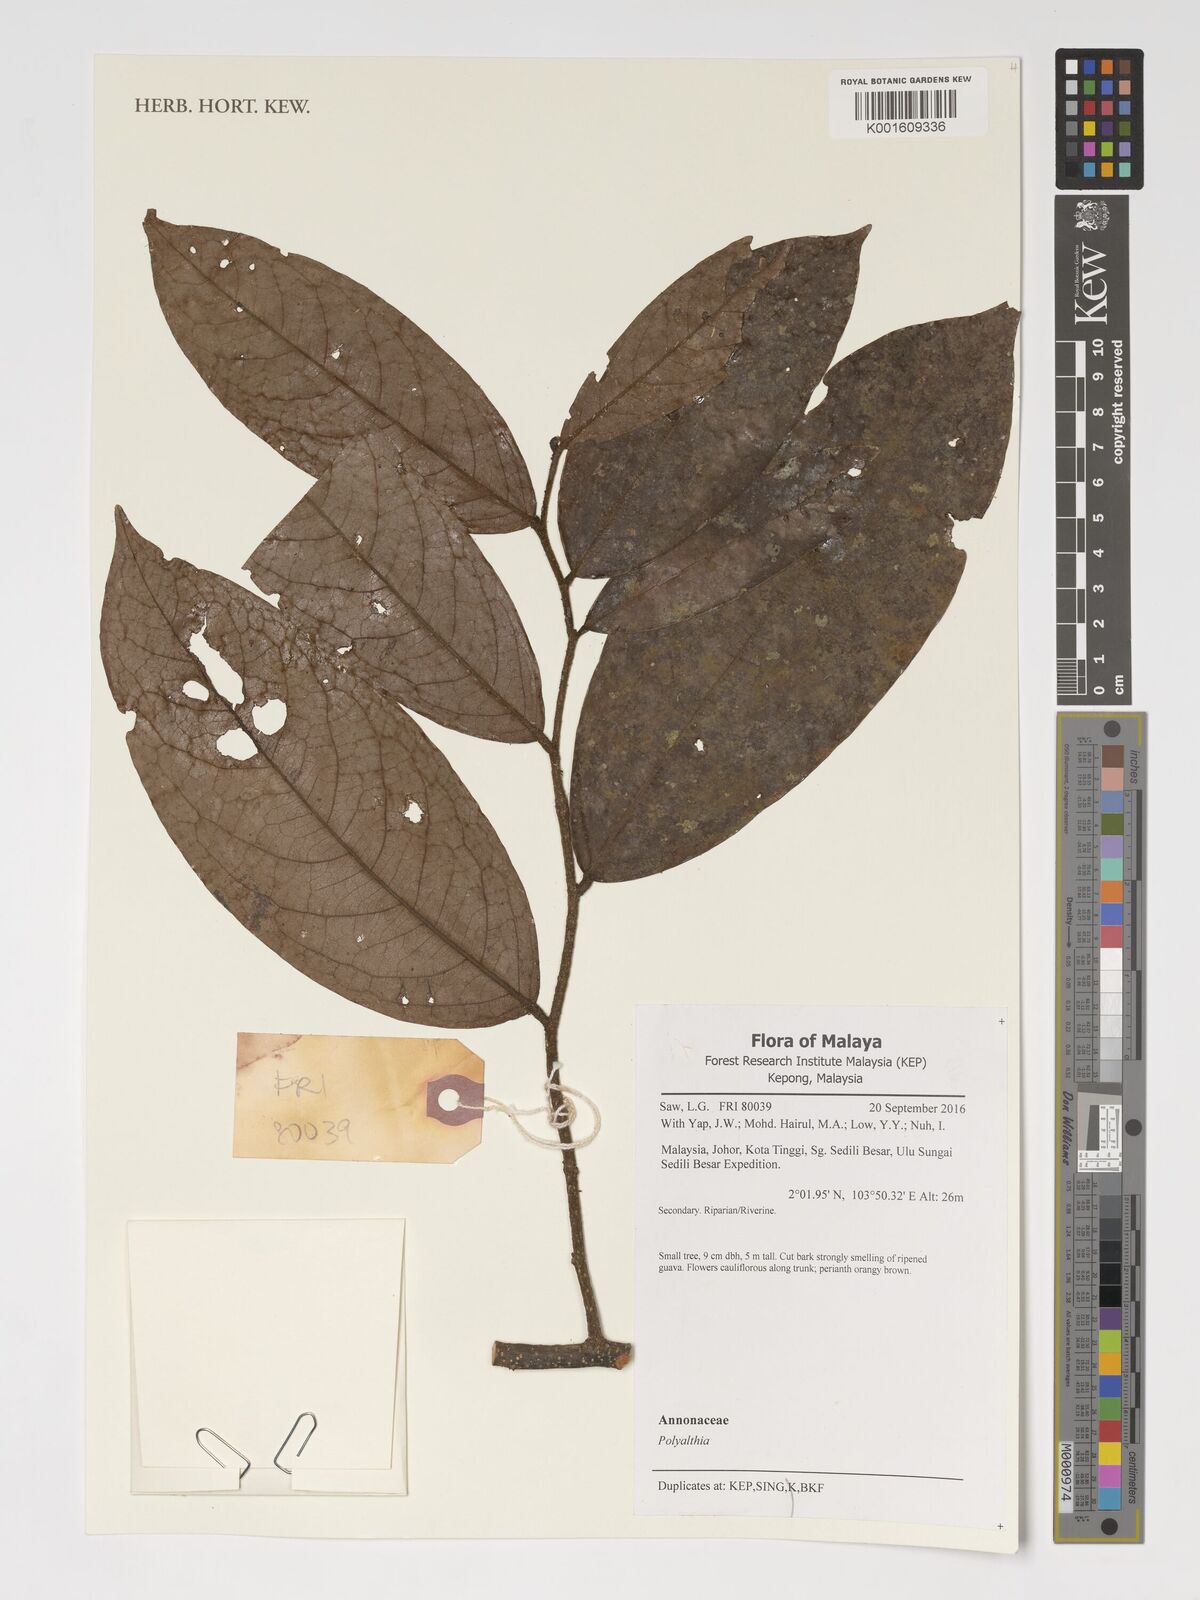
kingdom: Plantae
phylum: Tracheophyta
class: Magnoliopsida
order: Magnoliales
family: Annonaceae
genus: Polyalthia
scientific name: Polyalthia
